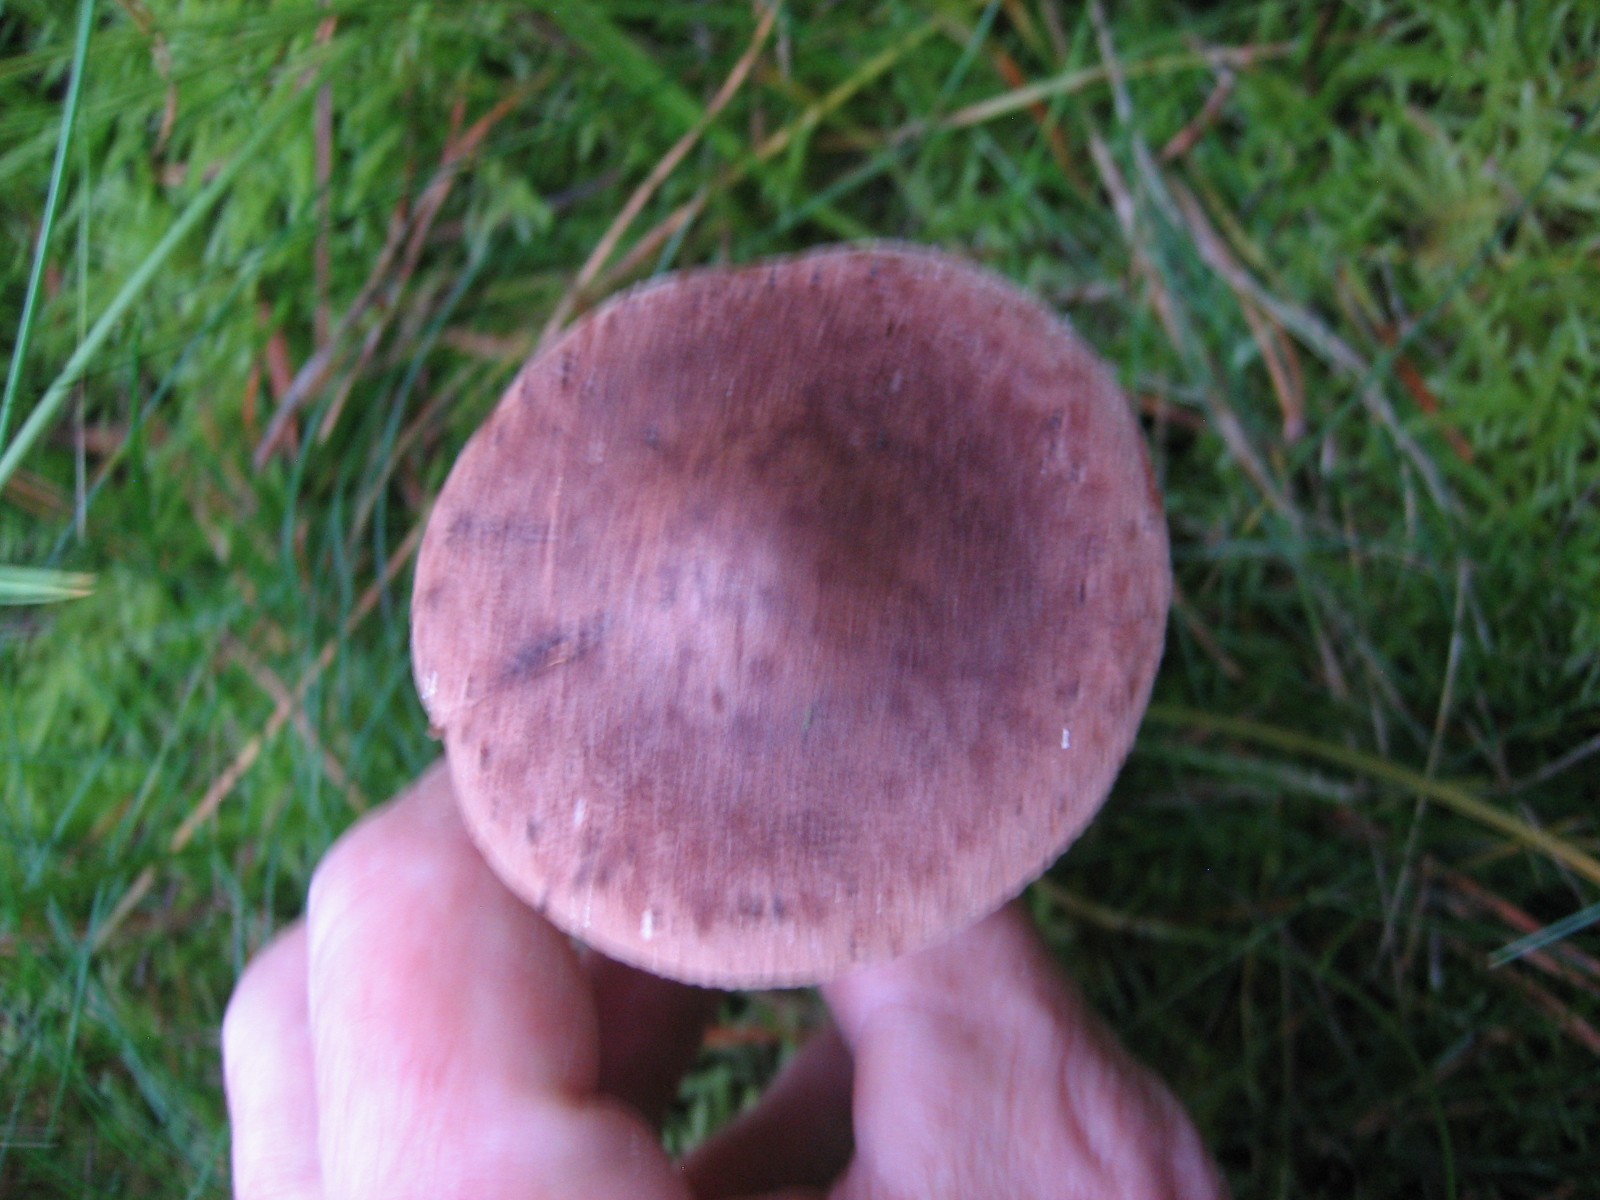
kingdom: Fungi
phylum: Basidiomycota
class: Agaricomycetes
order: Agaricales
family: Tricholomataceae
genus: Tricholoma
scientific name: Tricholoma imbricatum
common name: skællet ridderhat
